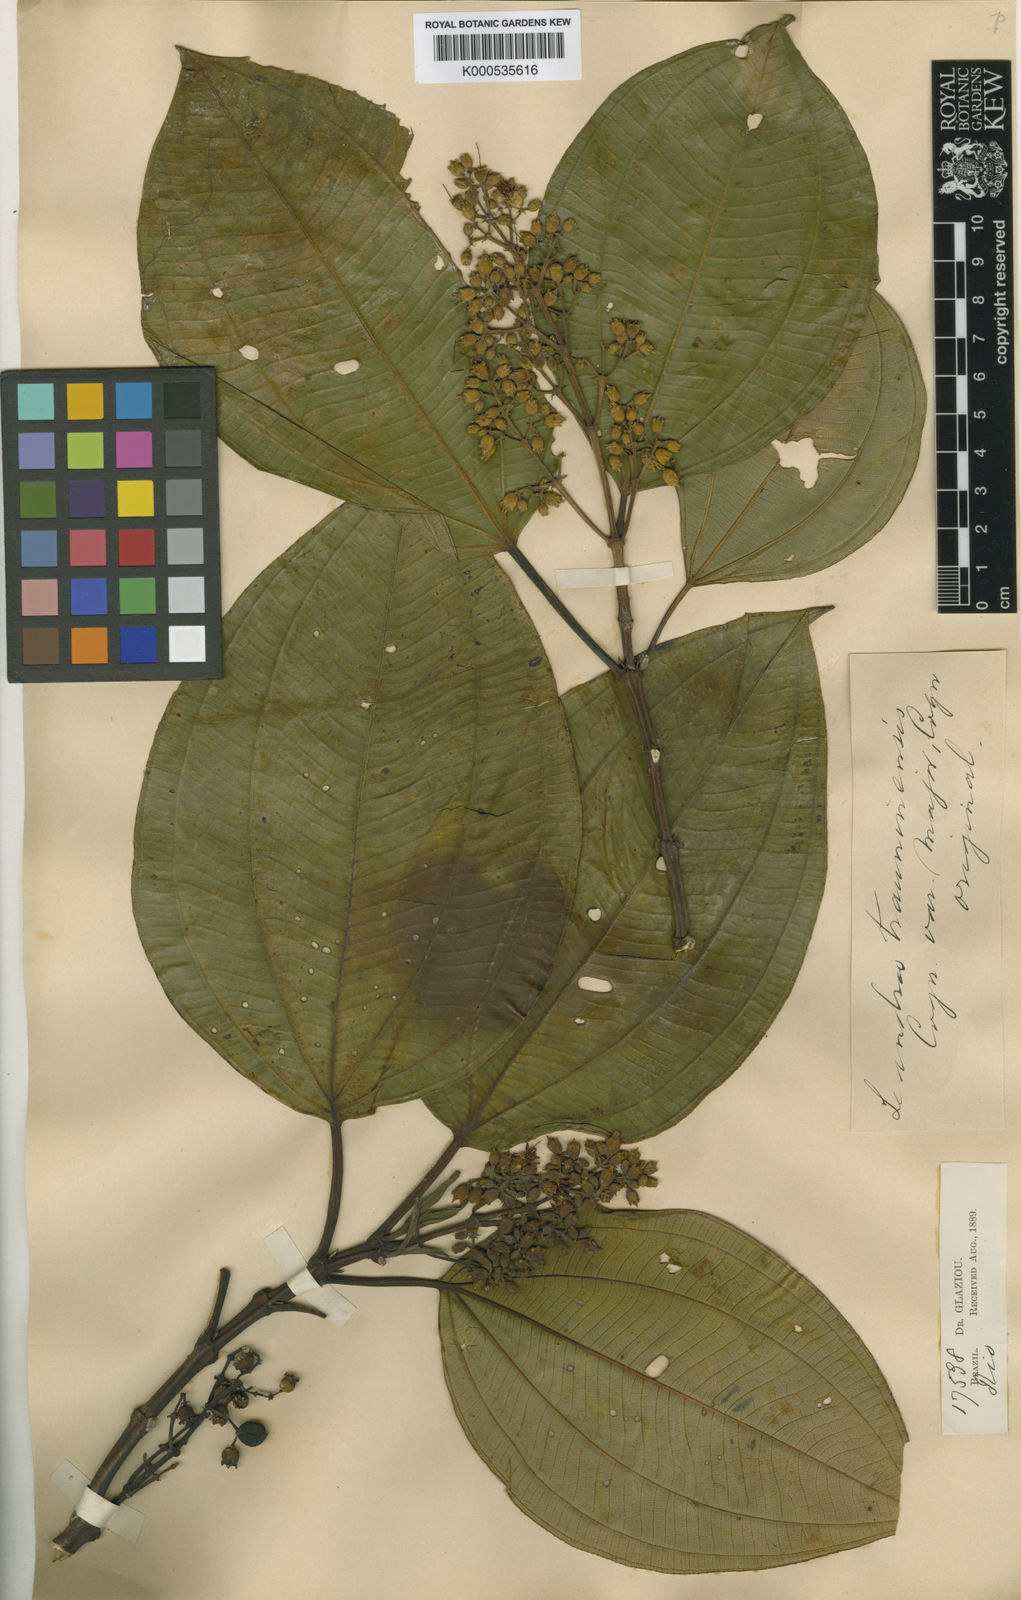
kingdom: Plantae
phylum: Tracheophyta
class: Magnoliopsida
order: Myrtales
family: Melastomataceae
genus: Miconia
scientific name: Miconia trauninensis
